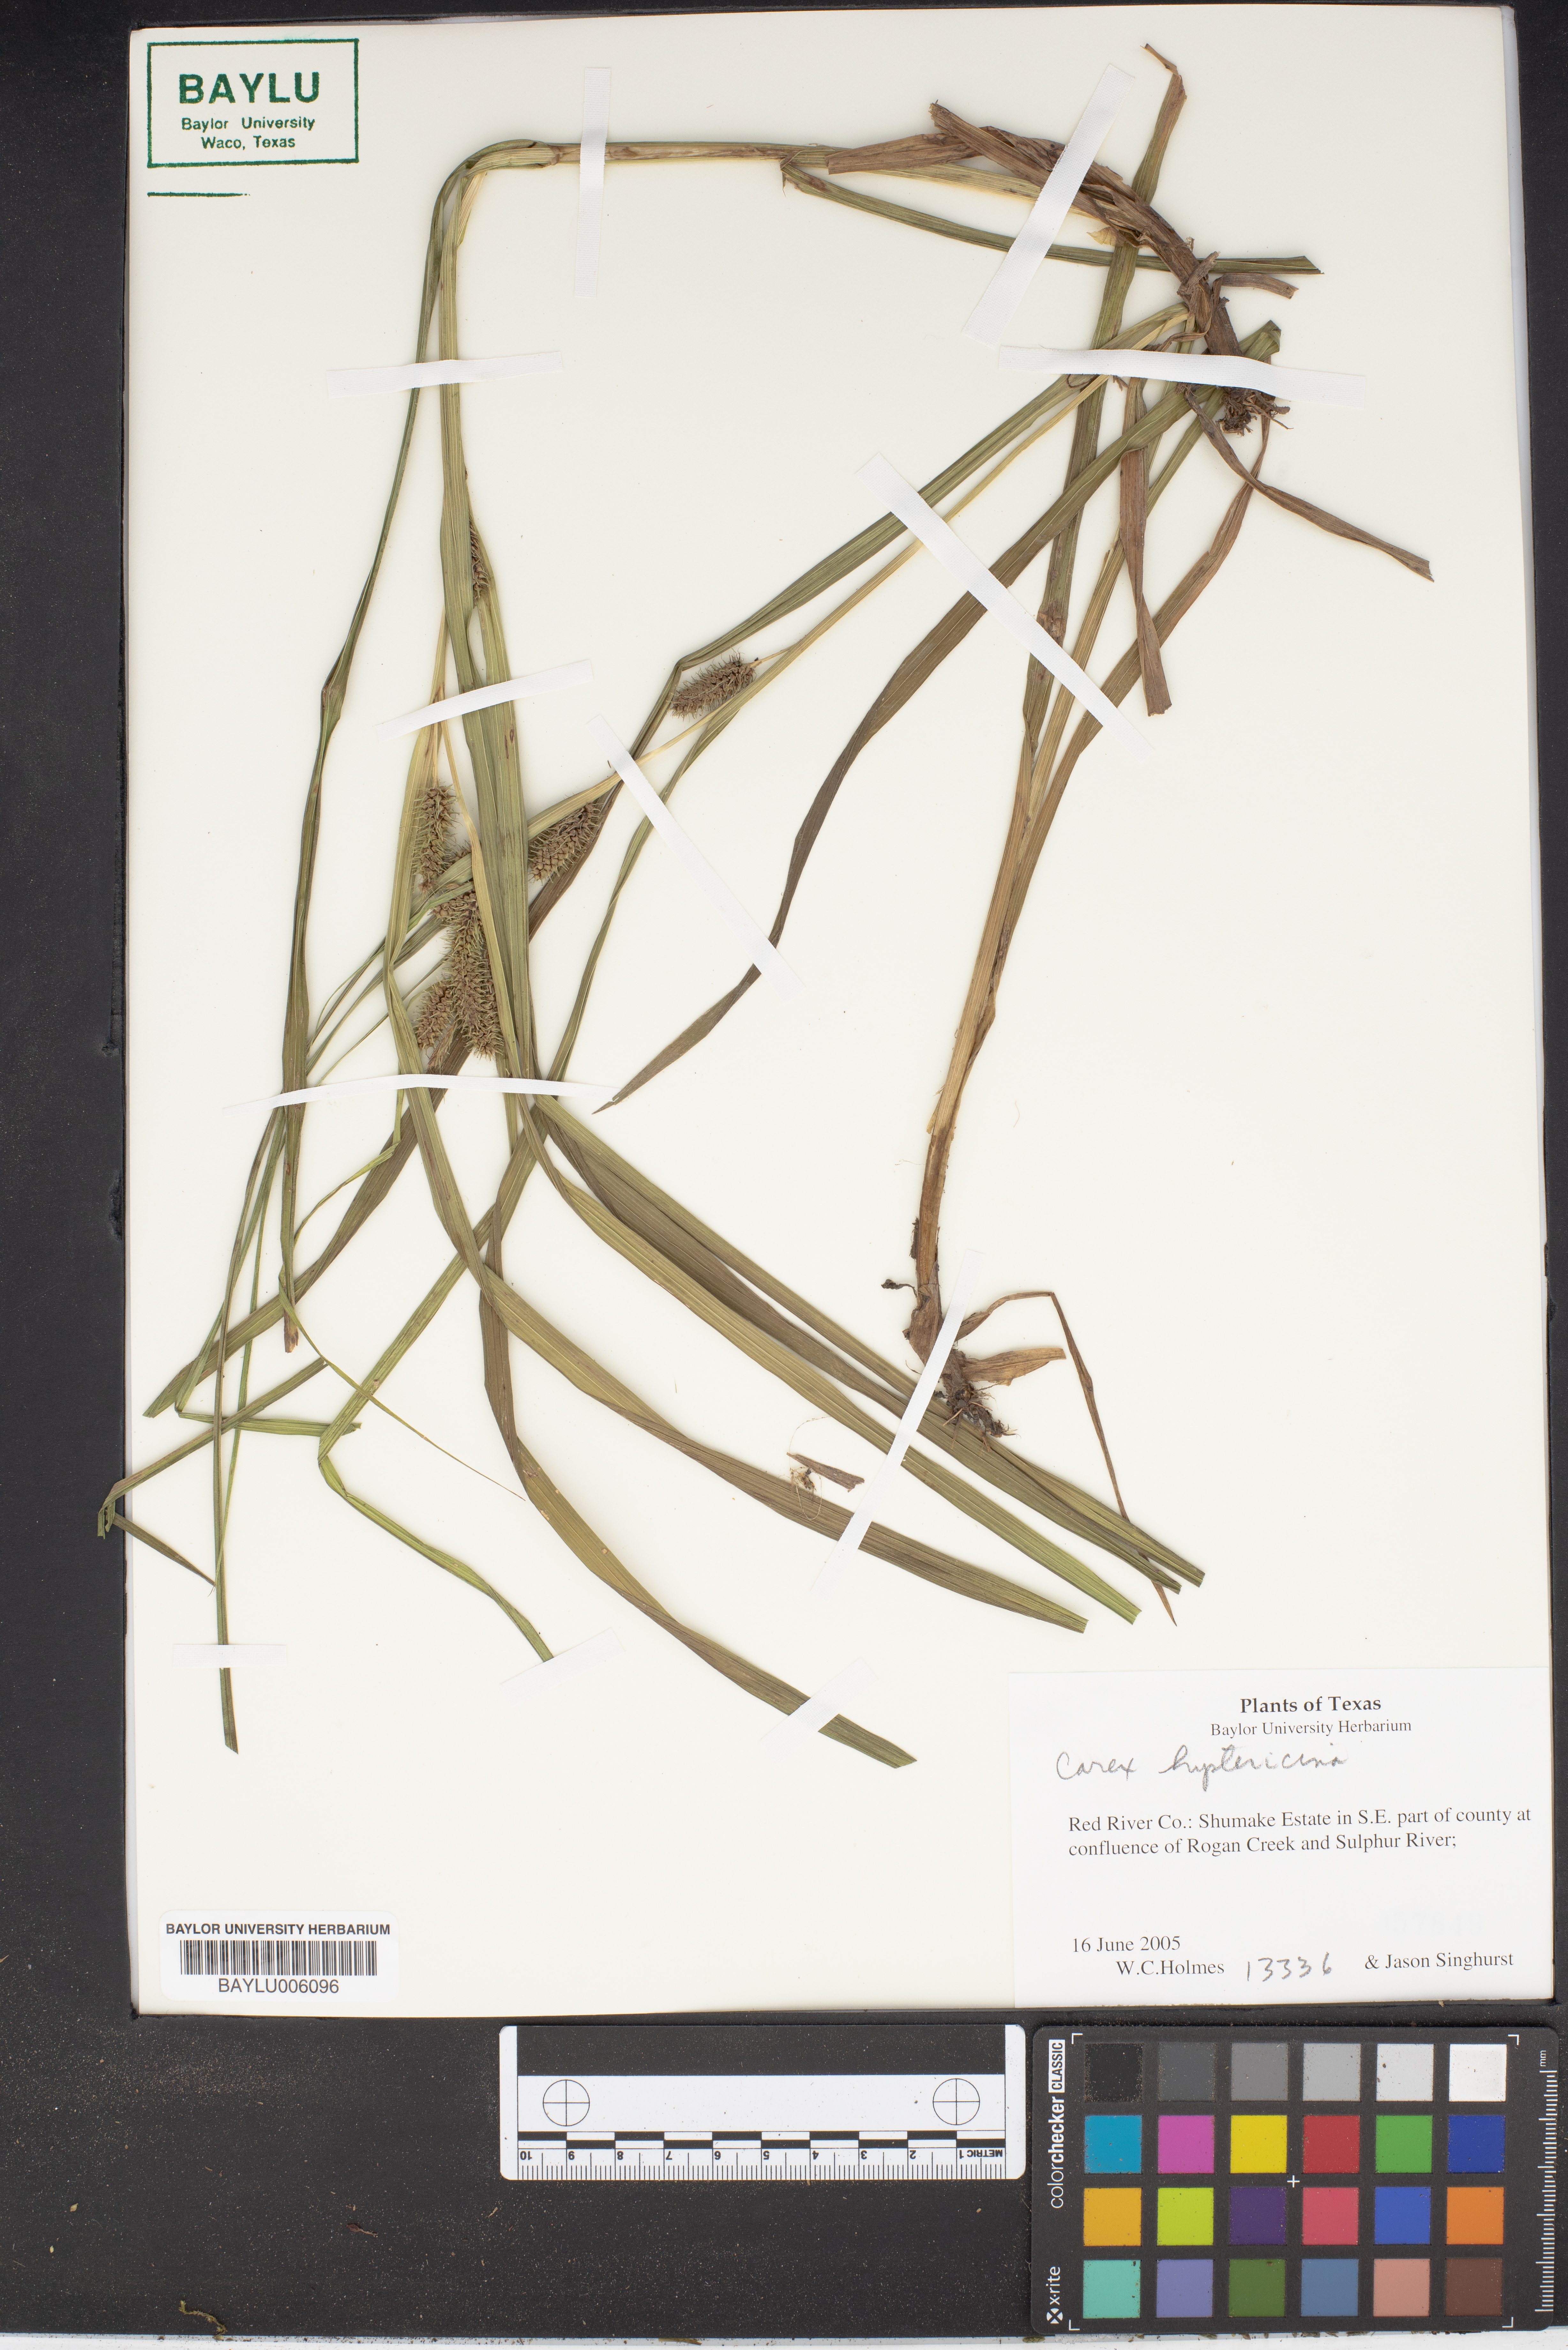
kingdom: Plantae
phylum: Tracheophyta
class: Liliopsida
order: Poales
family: Cyperaceae
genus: Carex
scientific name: Carex hystericina
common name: Bottlebrush sedge
